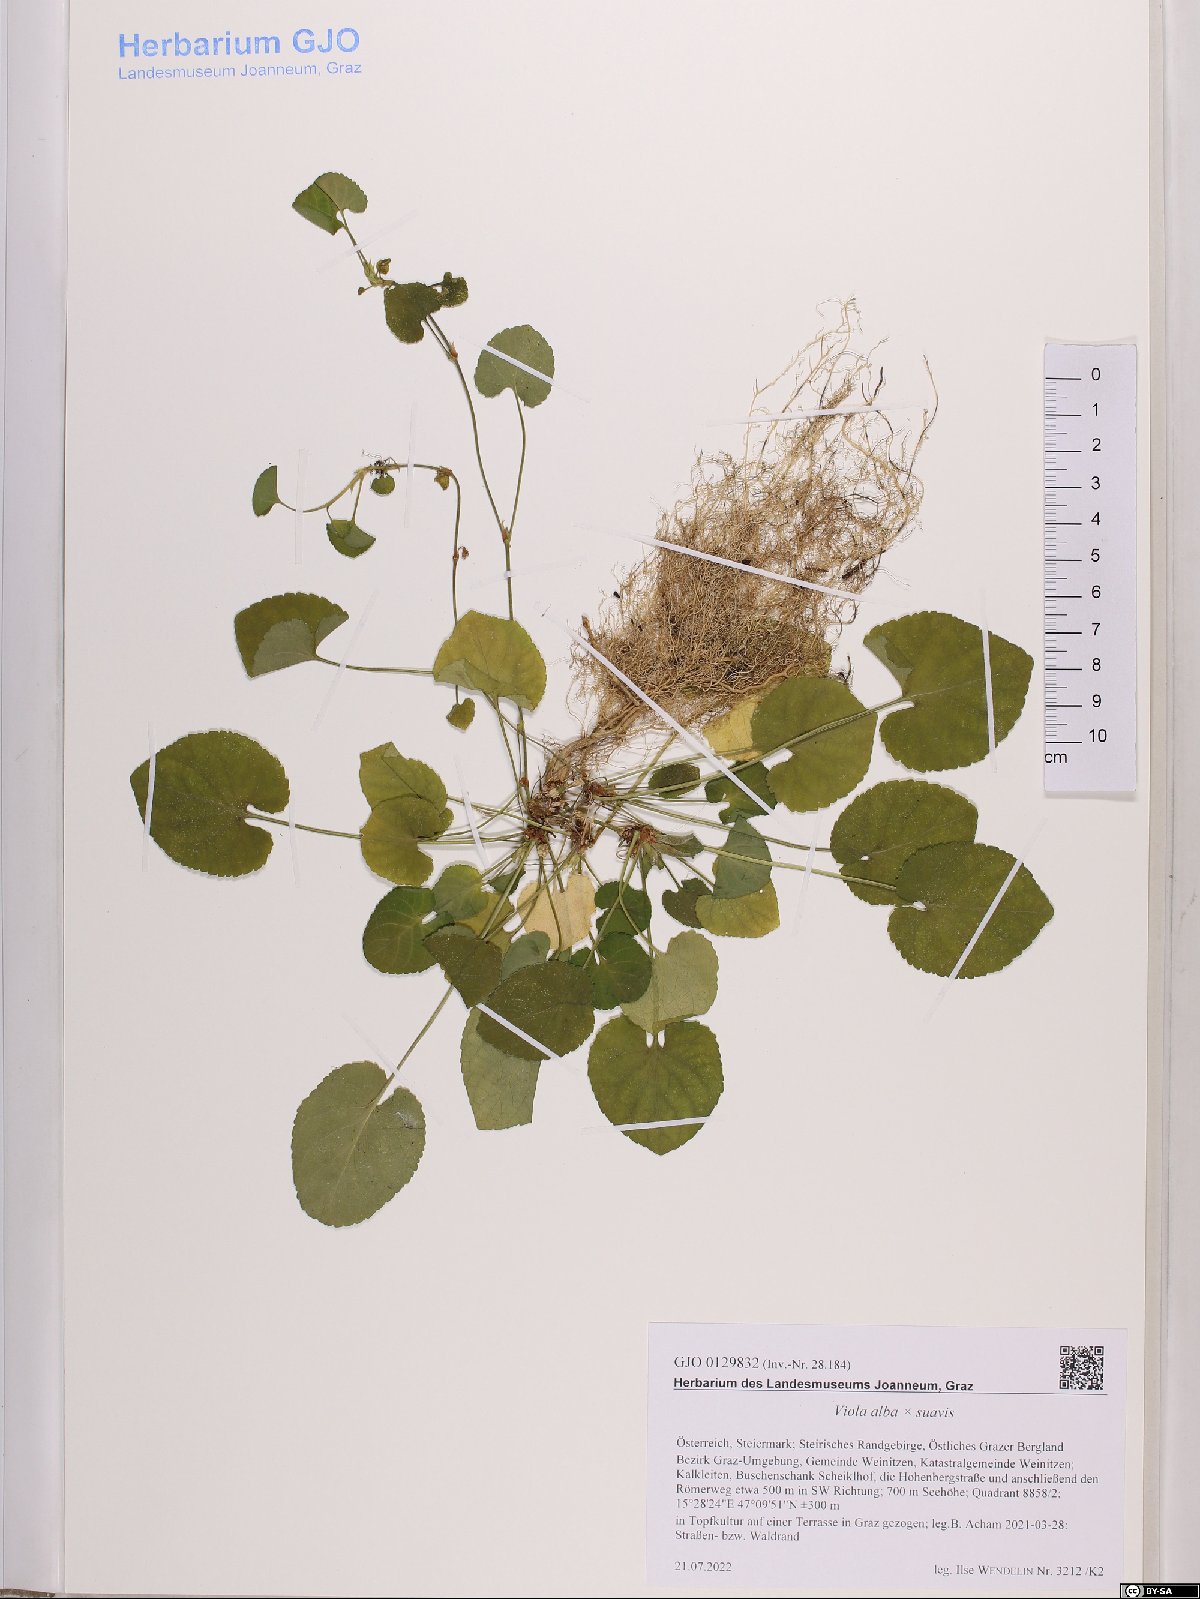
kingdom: Plantae
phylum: Tracheophyta
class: Magnoliopsida
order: Malpighiales
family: Violaceae
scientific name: Violaceae
